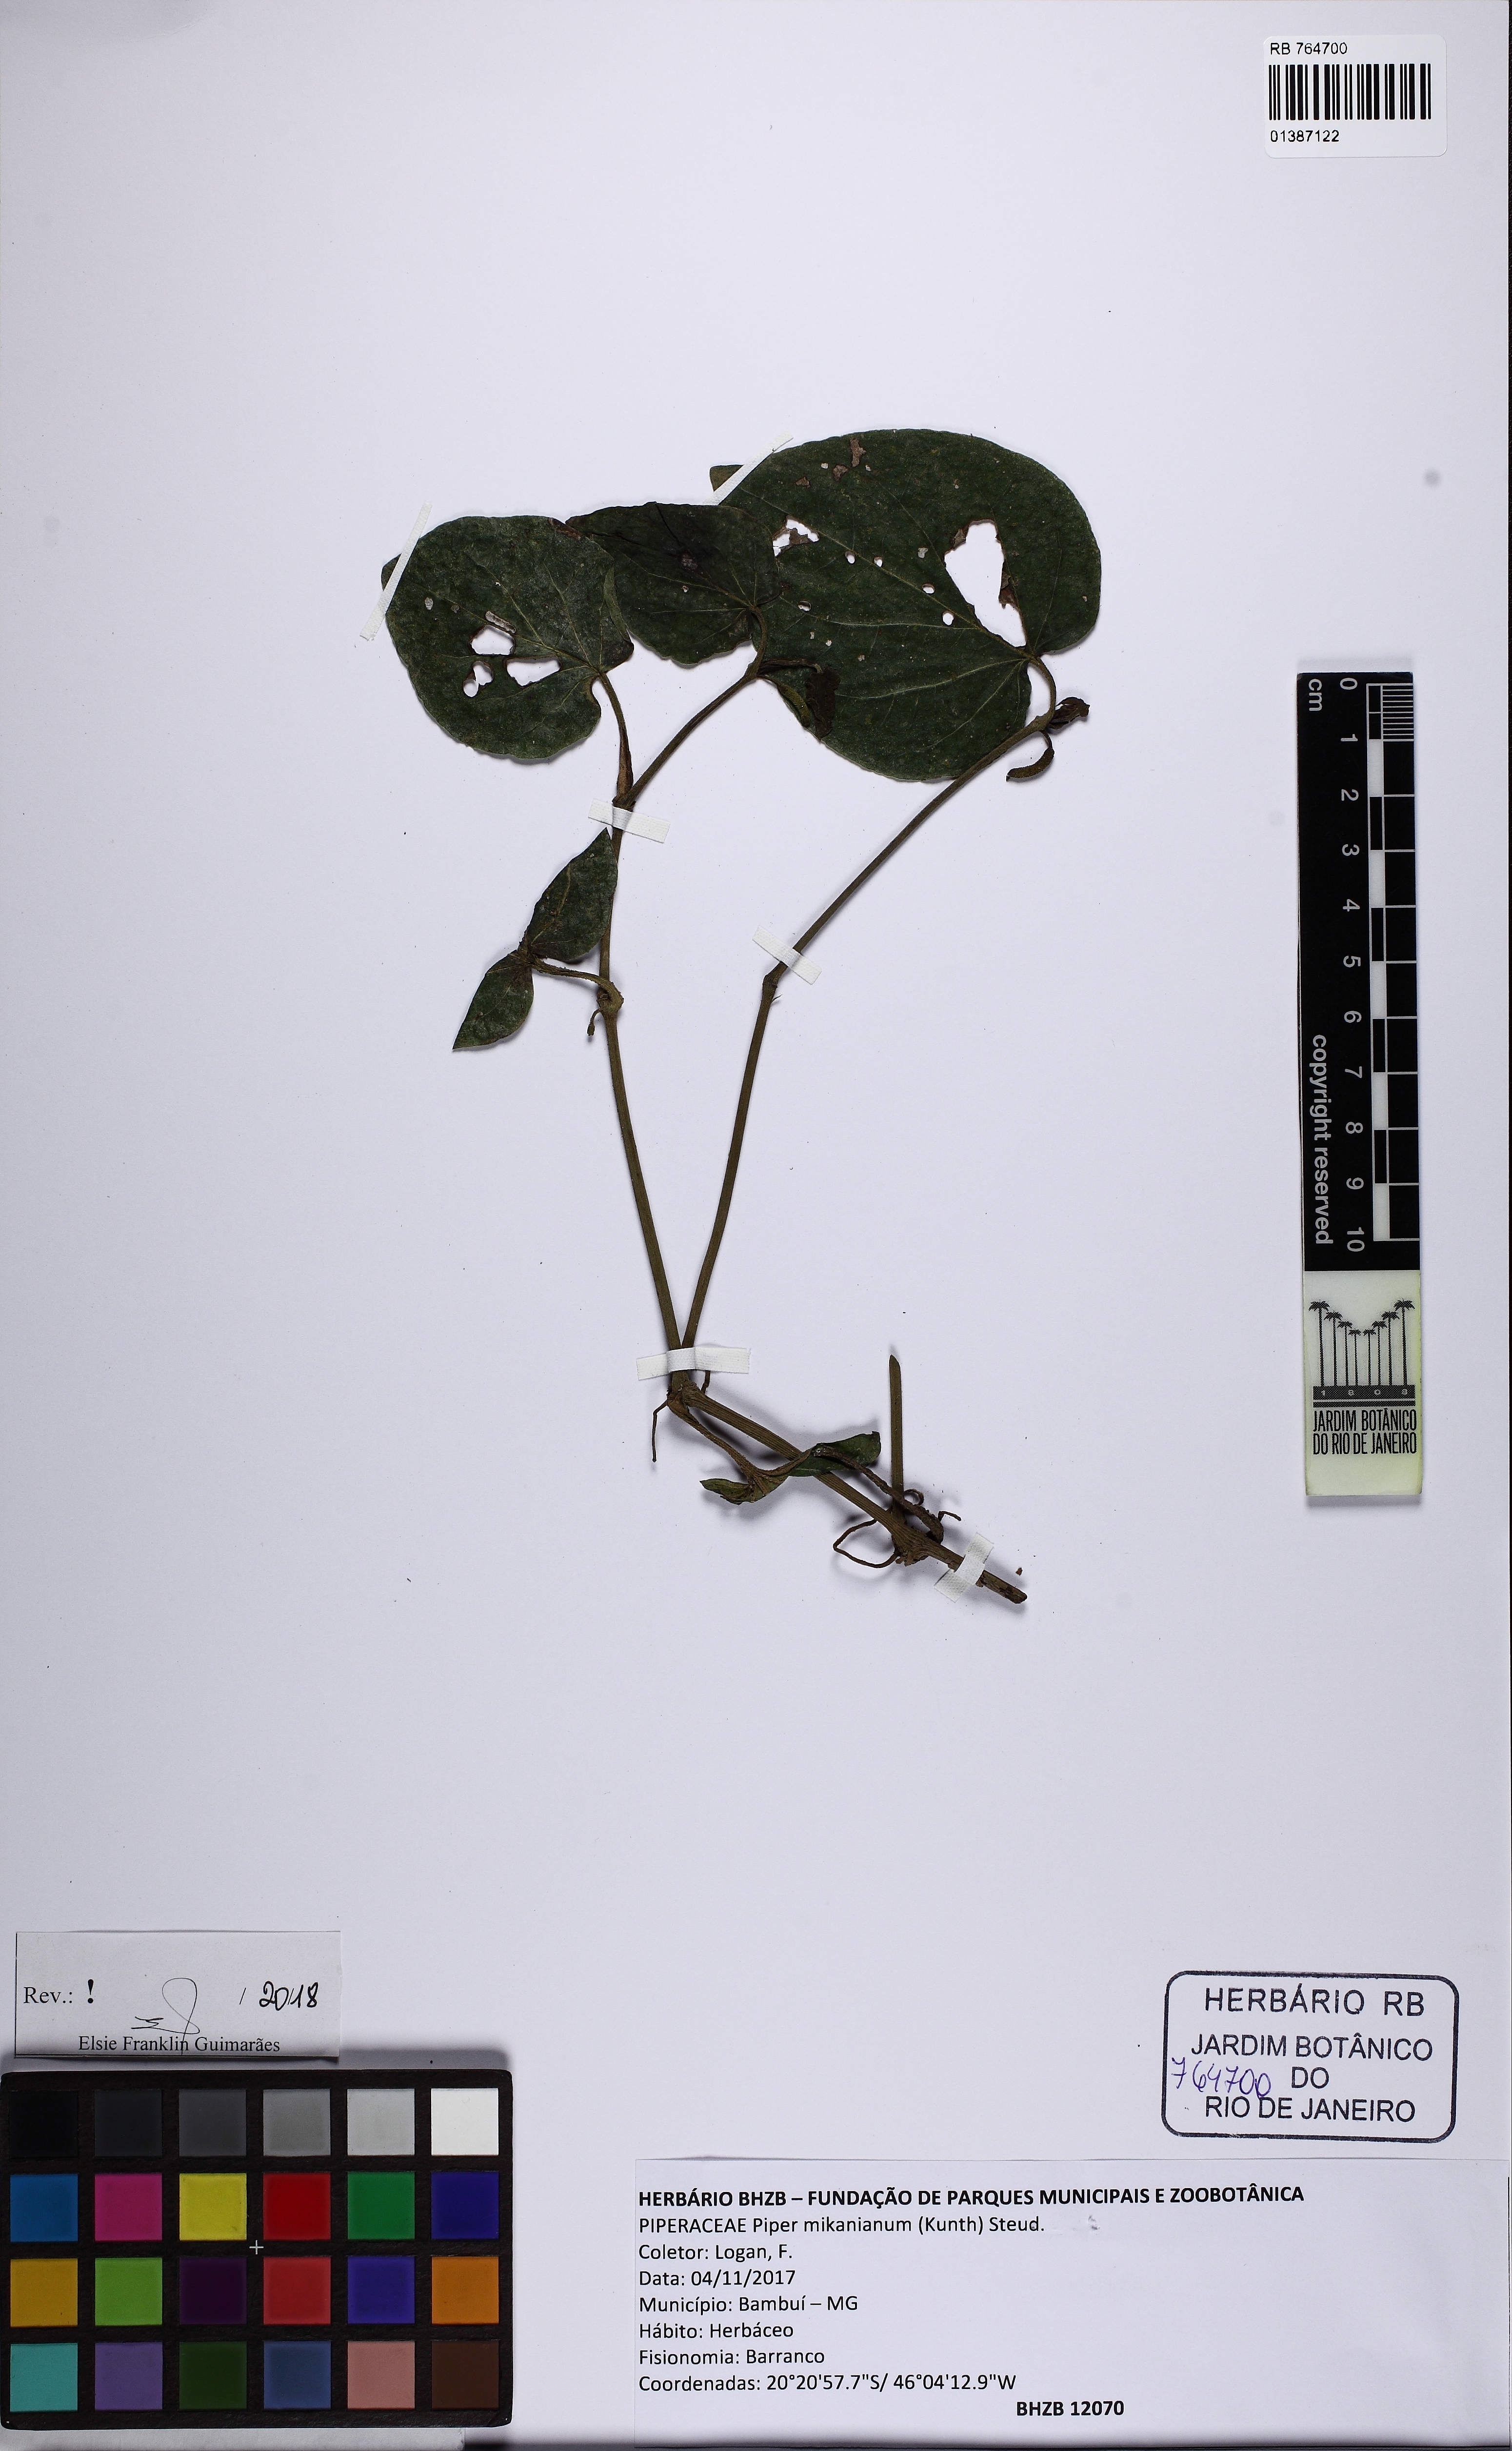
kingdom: Plantae
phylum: Tracheophyta
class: Magnoliopsida
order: Piperales
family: Piperaceae
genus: Piper
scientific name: Piper mikanianum
